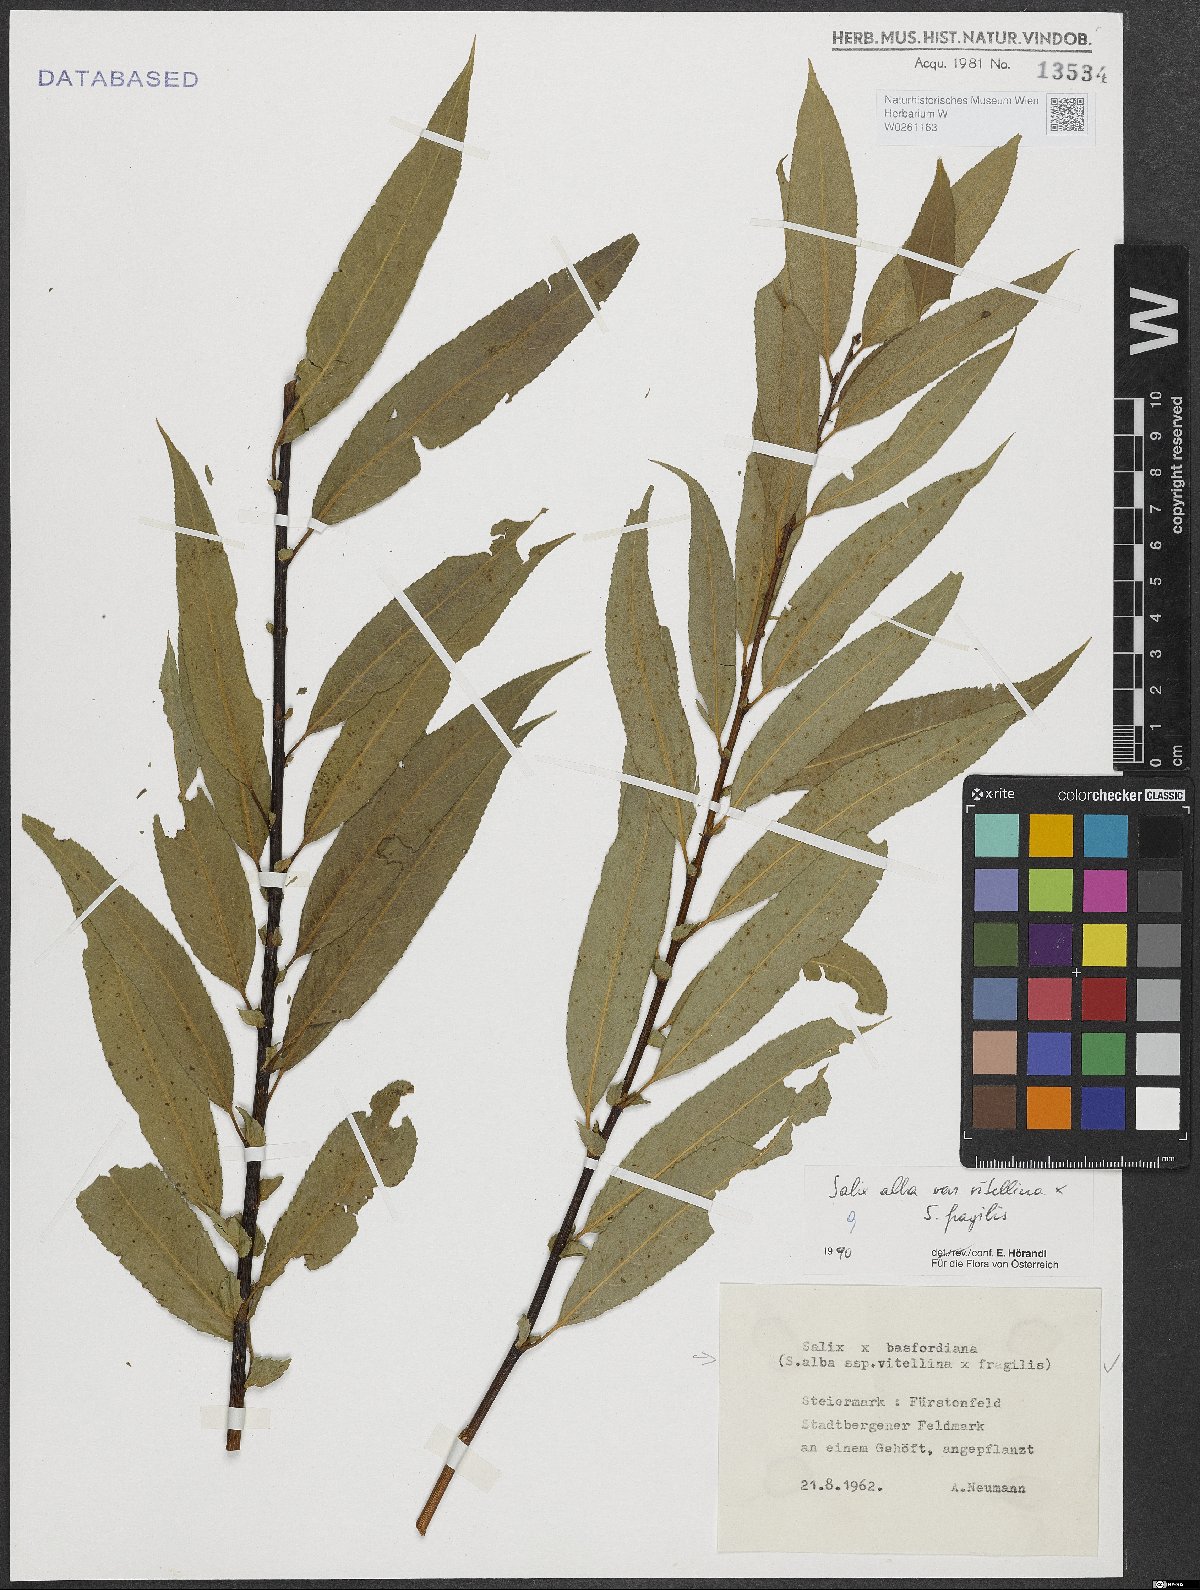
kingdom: Plantae
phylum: Tracheophyta
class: Magnoliopsida
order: Malpighiales
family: Salicaceae
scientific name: Salicaceae
